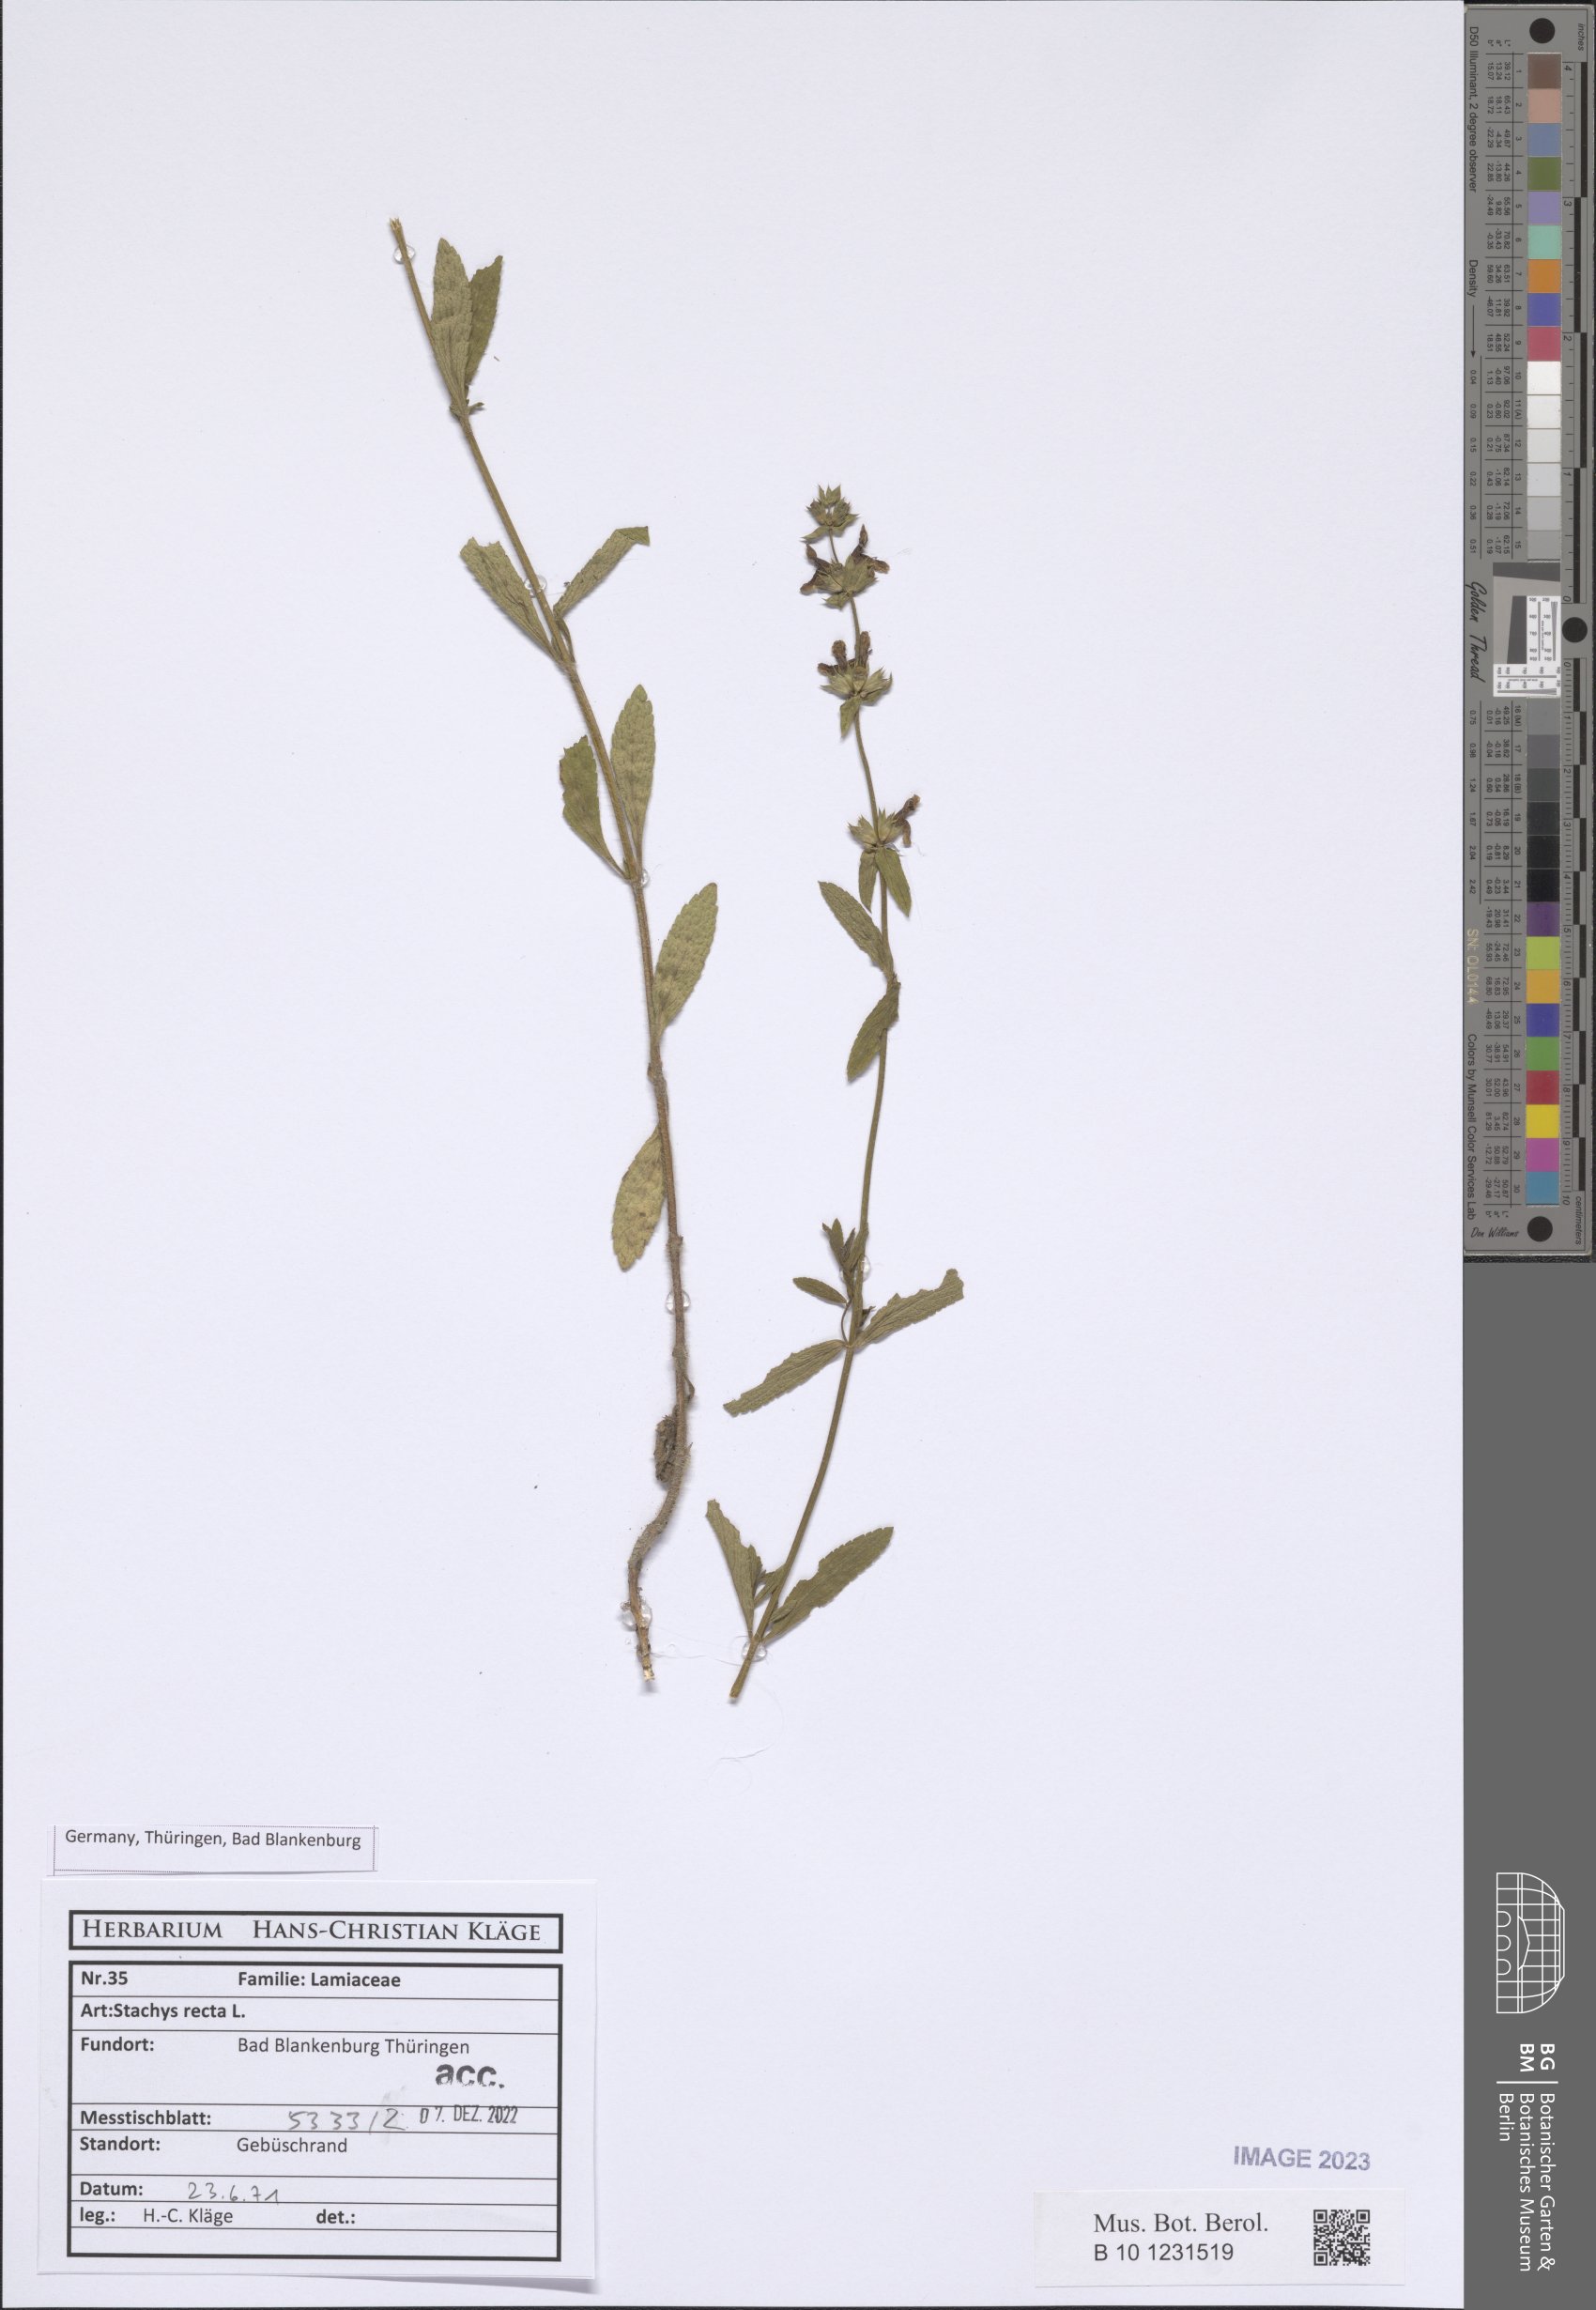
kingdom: Plantae
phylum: Tracheophyta
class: Magnoliopsida
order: Lamiales
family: Lamiaceae
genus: Stachys
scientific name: Stachys recta
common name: Perennial yellow-woundwort
